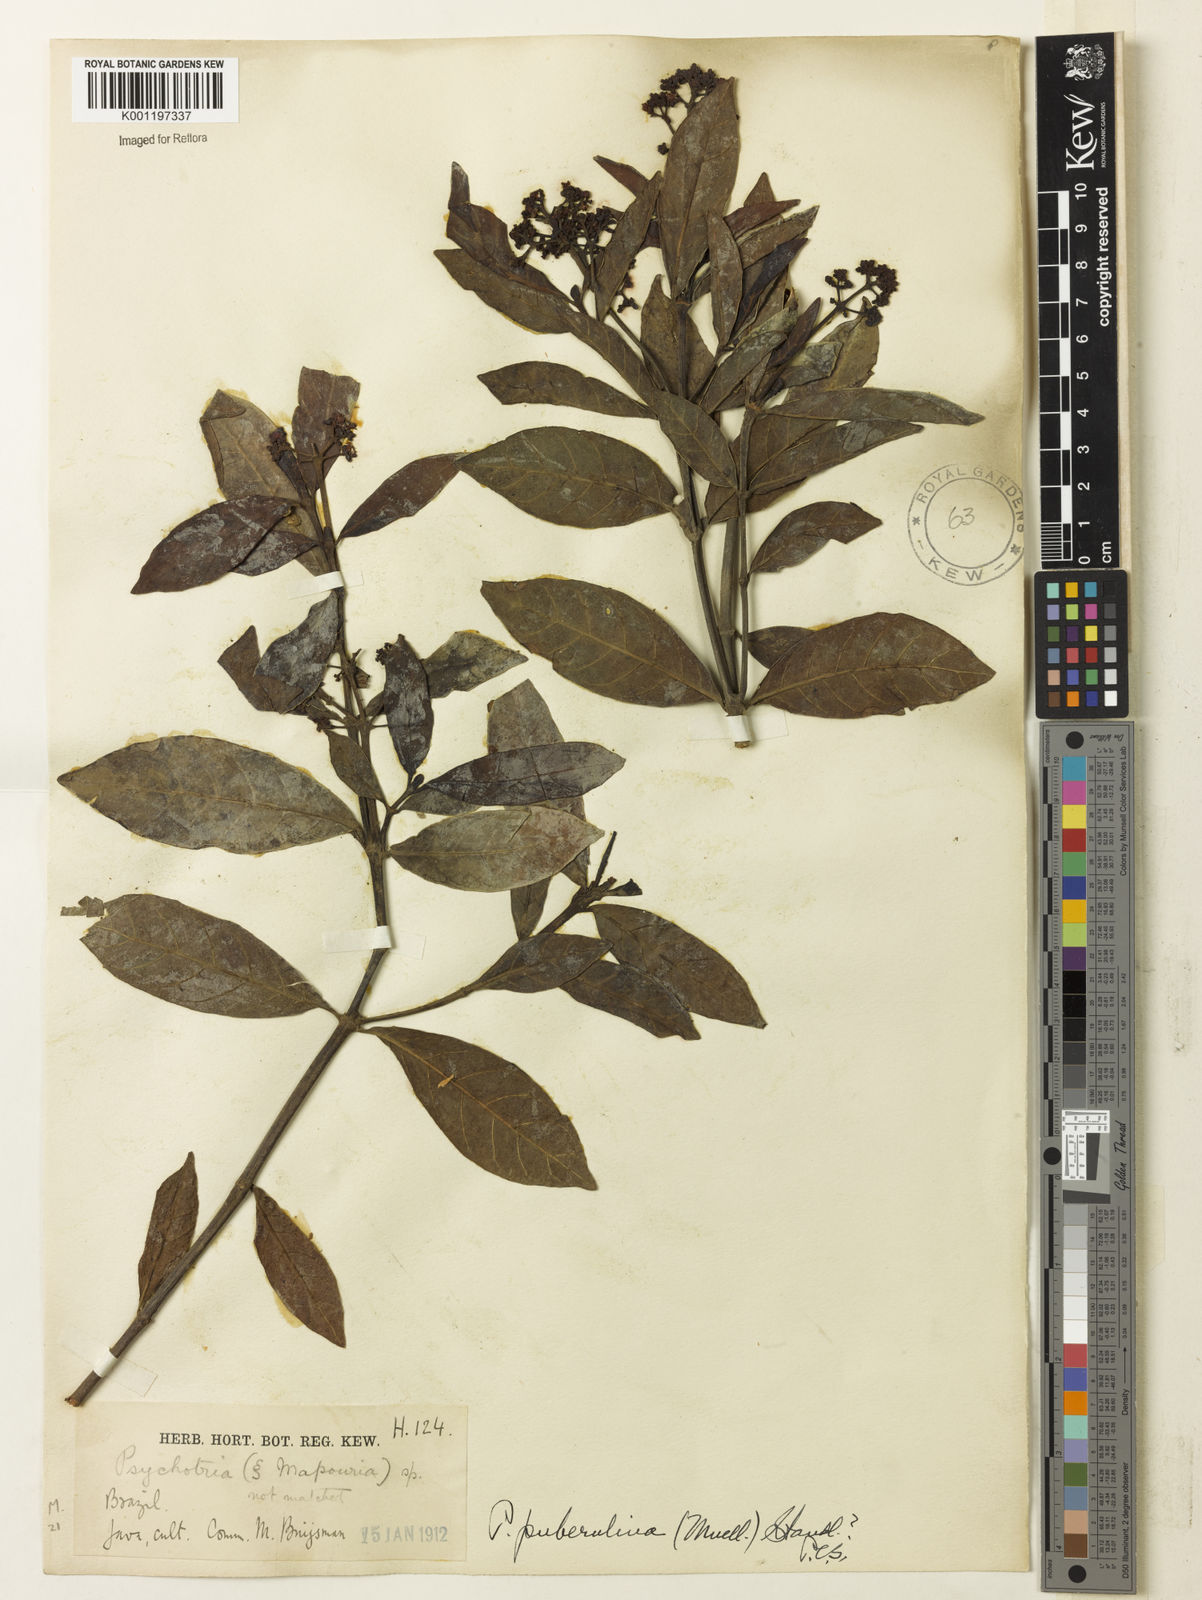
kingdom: Plantae
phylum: Tracheophyta
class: Magnoliopsida
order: Gentianales
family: Rubiaceae
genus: Psychotria
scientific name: Psychotria
